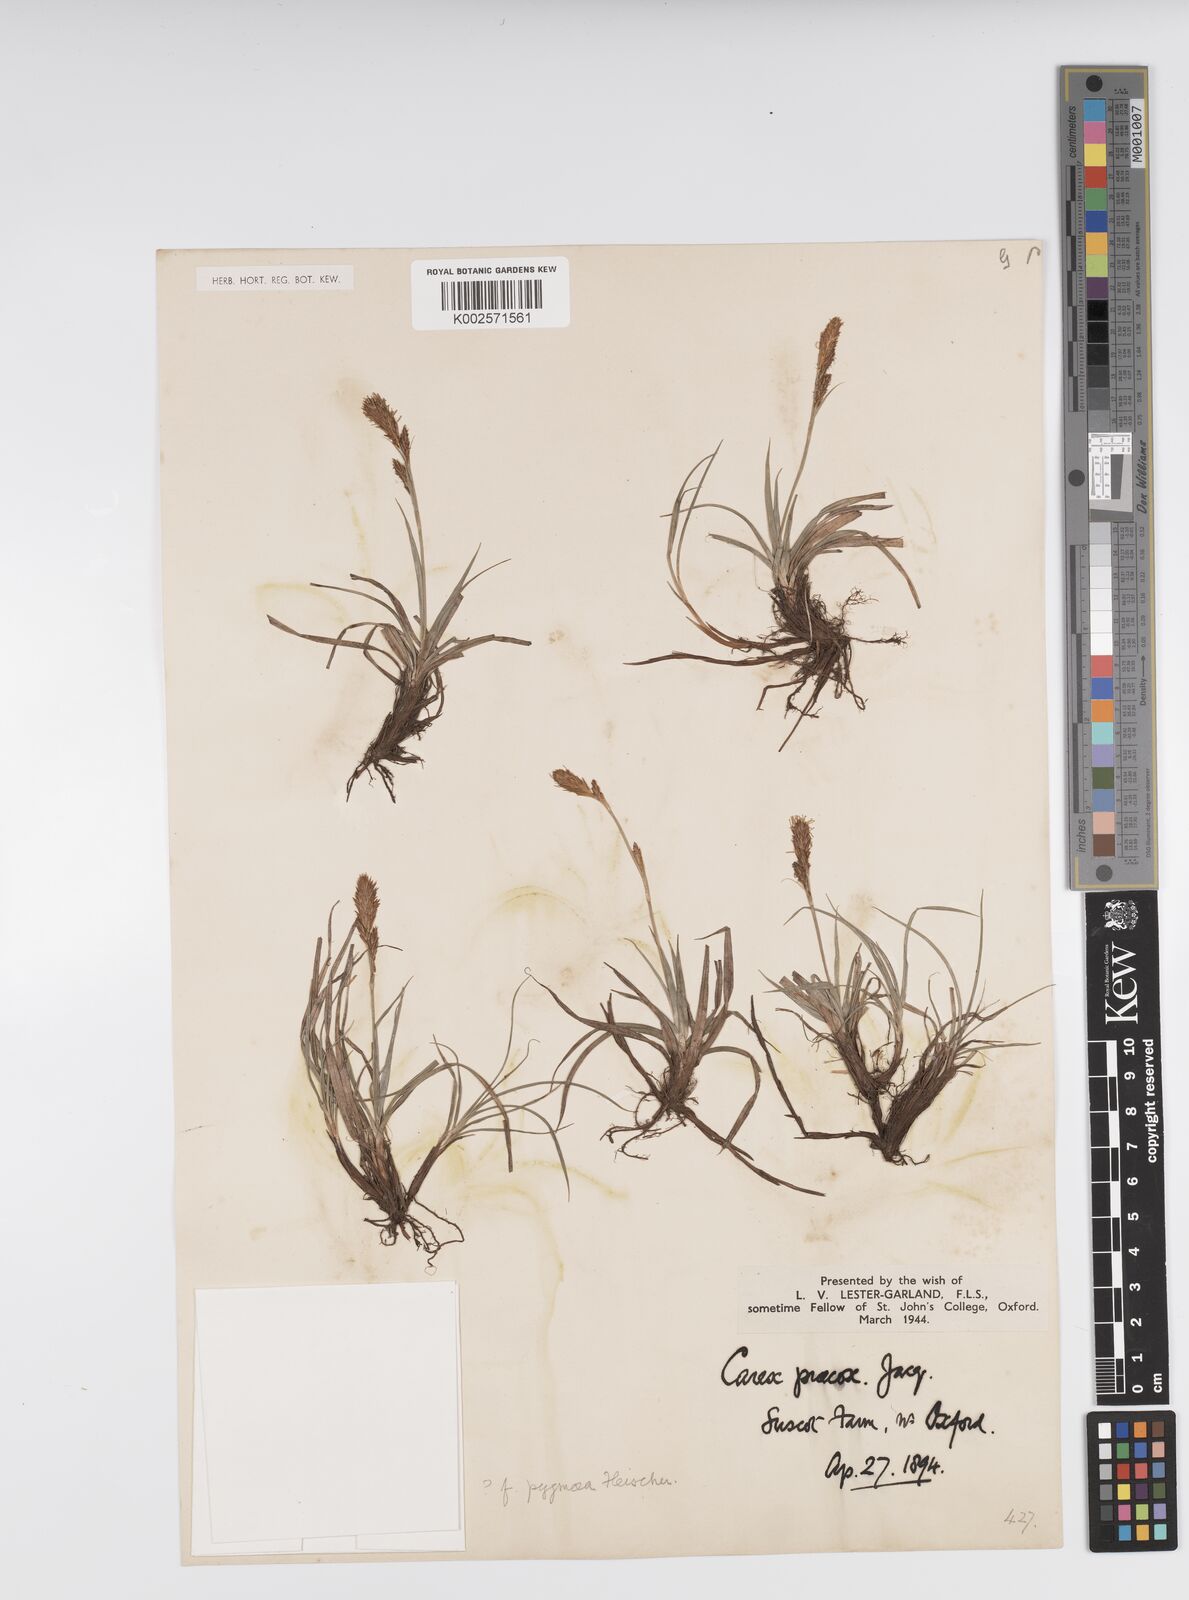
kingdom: Plantae
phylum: Tracheophyta
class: Liliopsida
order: Poales
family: Cyperaceae
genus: Carex
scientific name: Carex caryophyllea
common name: Spring sedge
